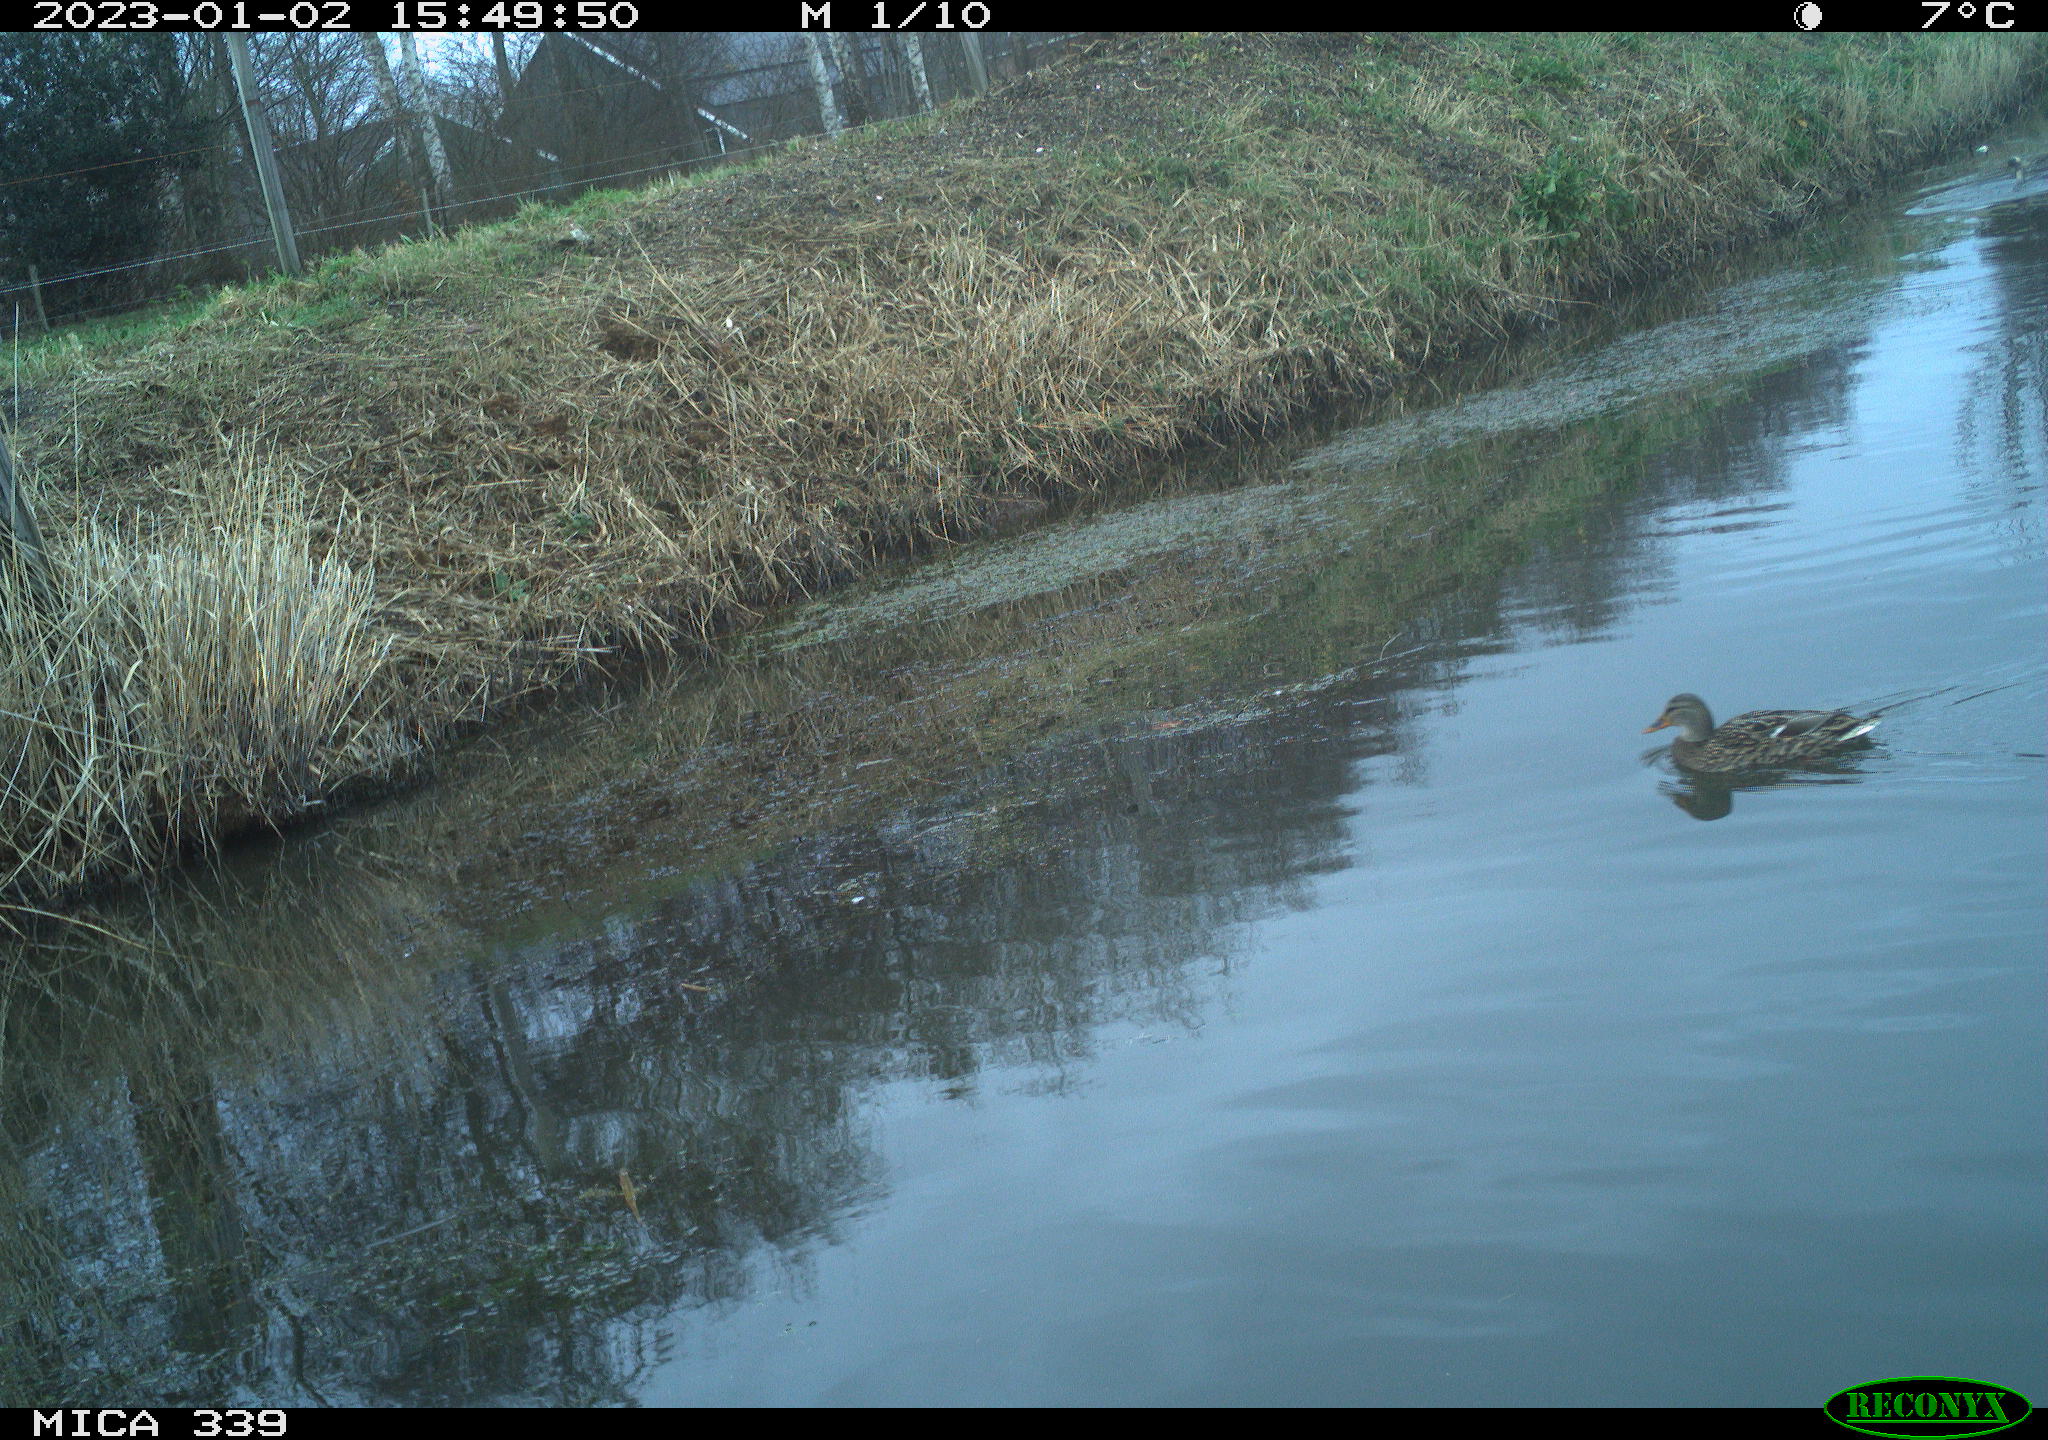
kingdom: Animalia
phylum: Chordata
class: Aves
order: Anseriformes
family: Anatidae
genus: Anas
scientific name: Anas
